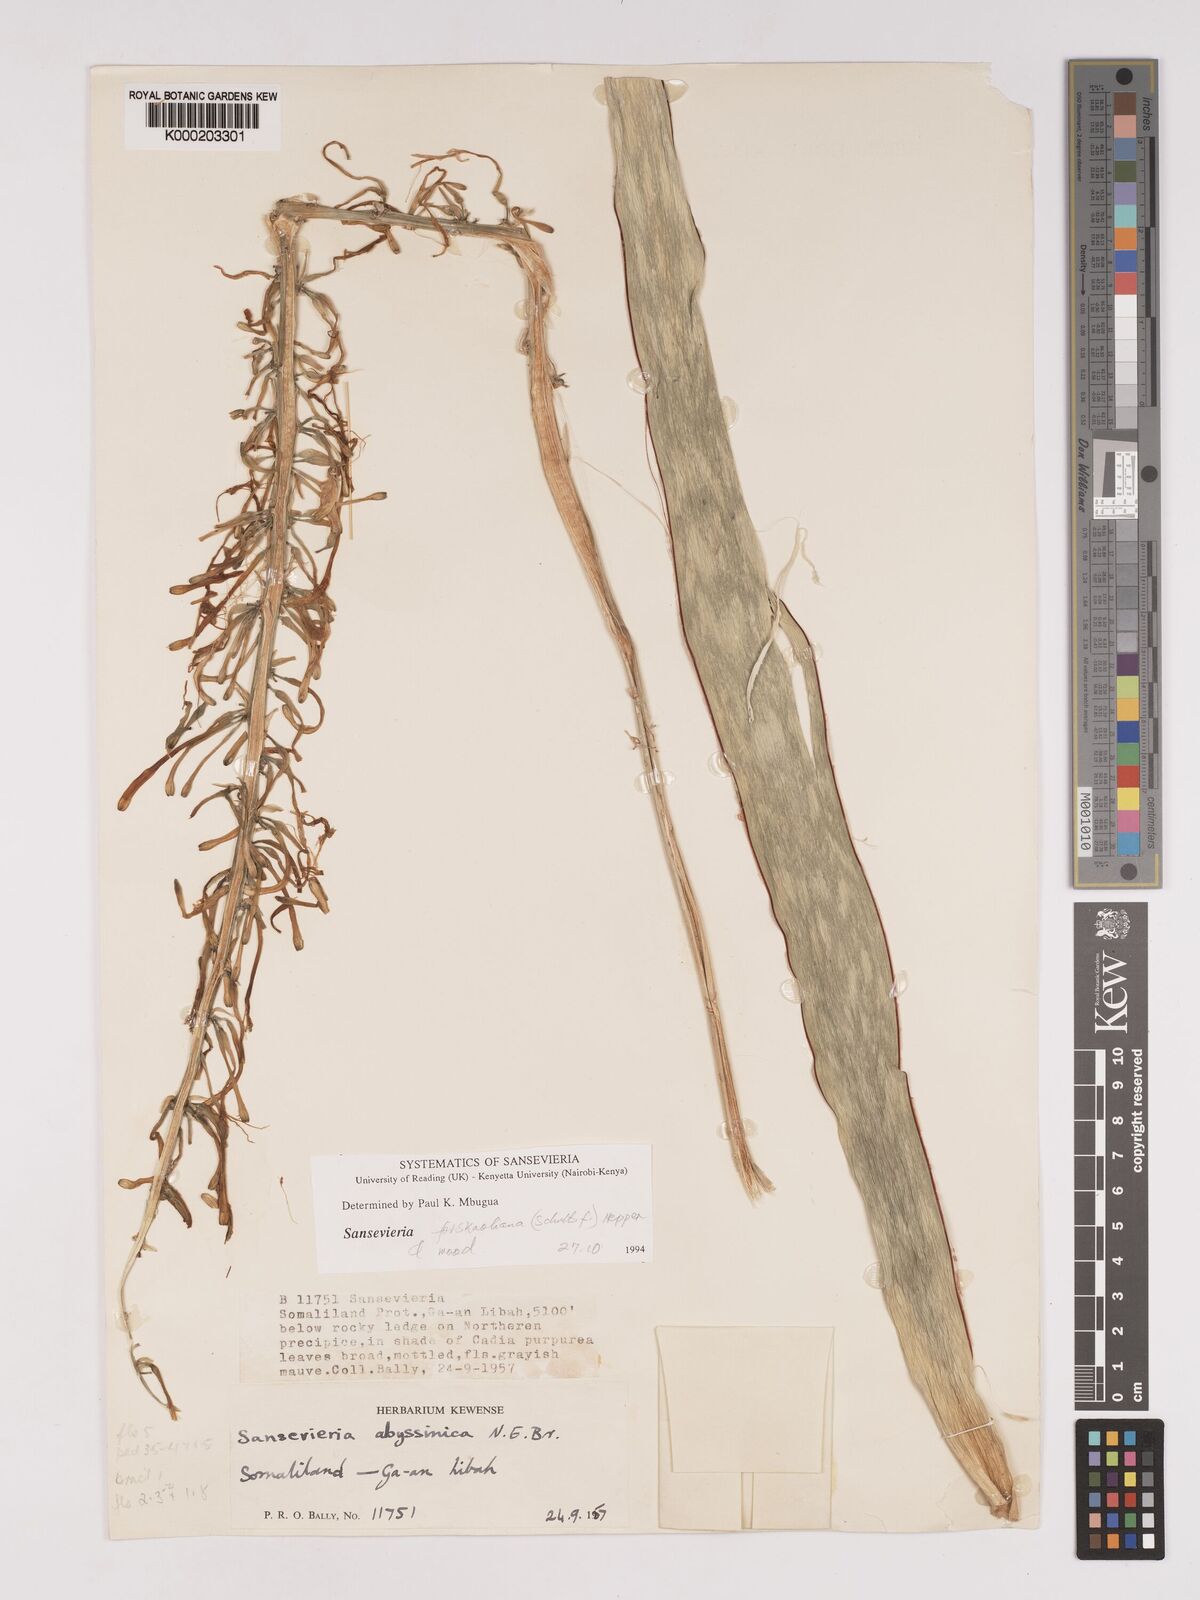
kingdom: Plantae
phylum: Tracheophyta
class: Liliopsida
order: Asparagales
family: Asparagaceae
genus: Dracaena
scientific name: Dracaena forskaliana
